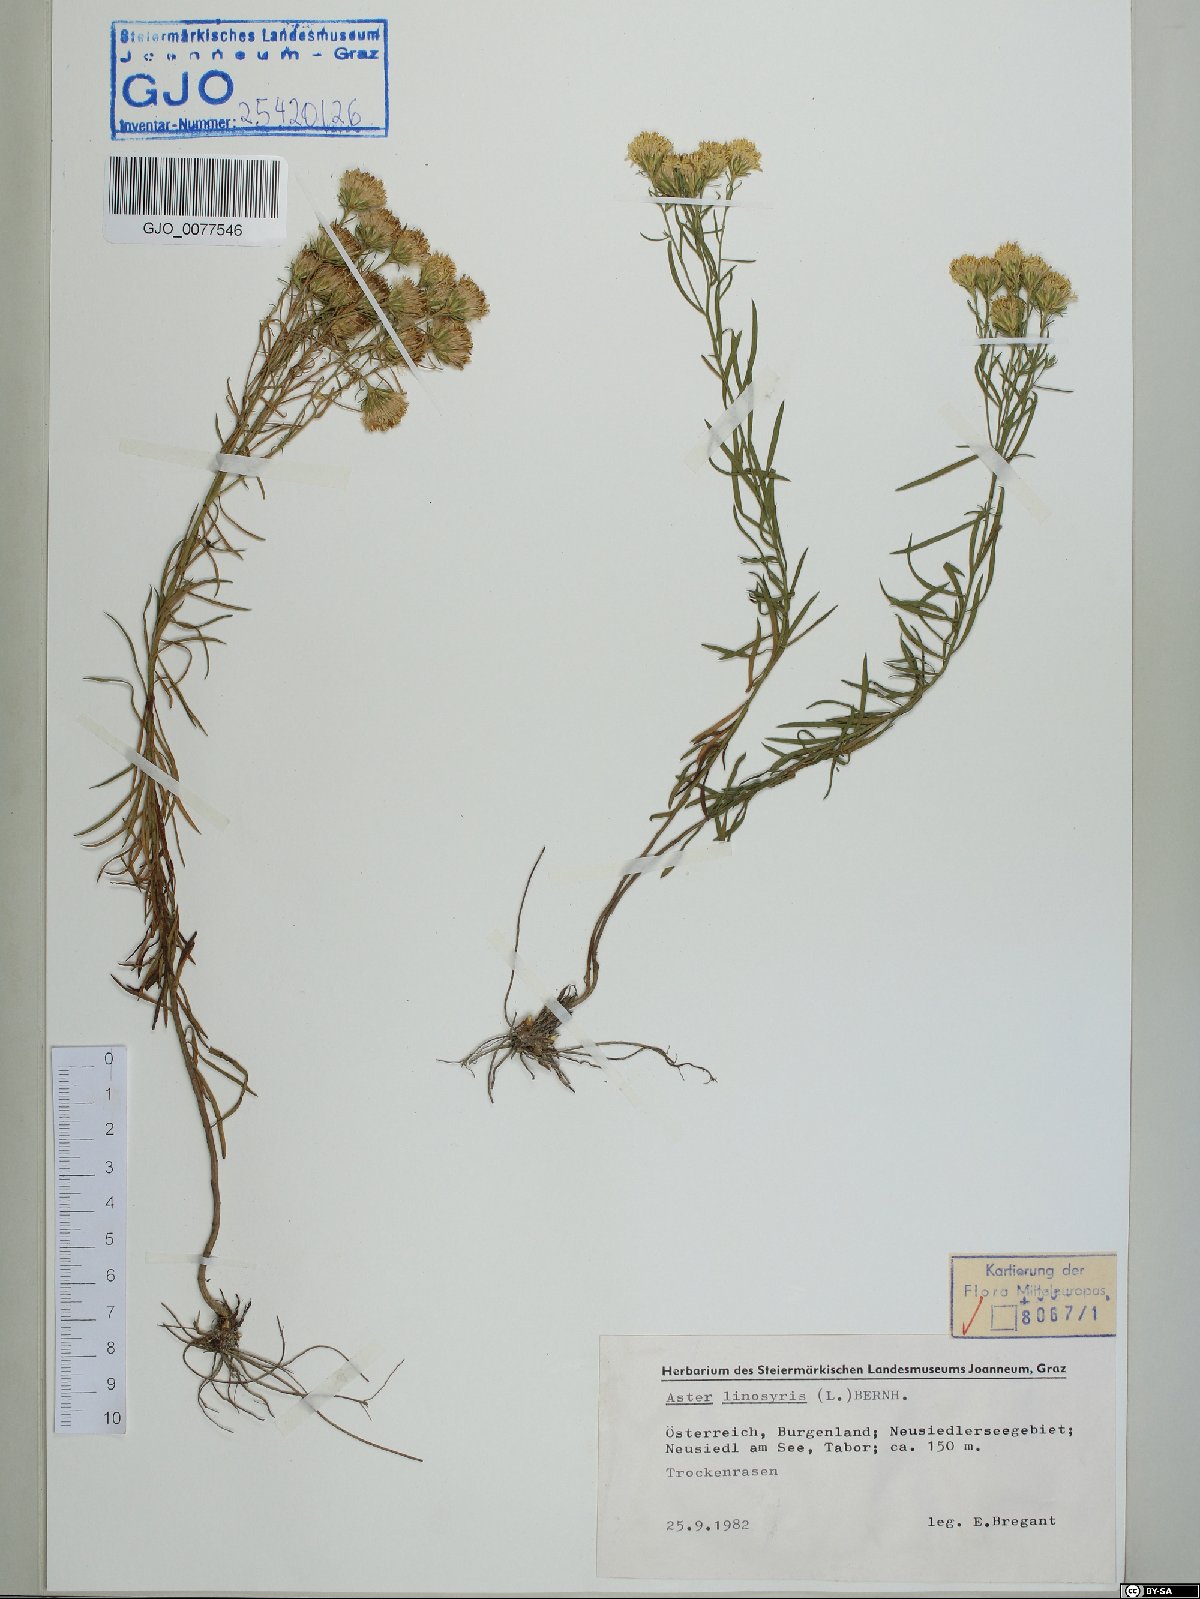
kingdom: Plantae
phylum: Tracheophyta
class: Magnoliopsida
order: Asterales
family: Asteraceae
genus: Galatella
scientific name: Galatella linosyris
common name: Goldilocks aster
